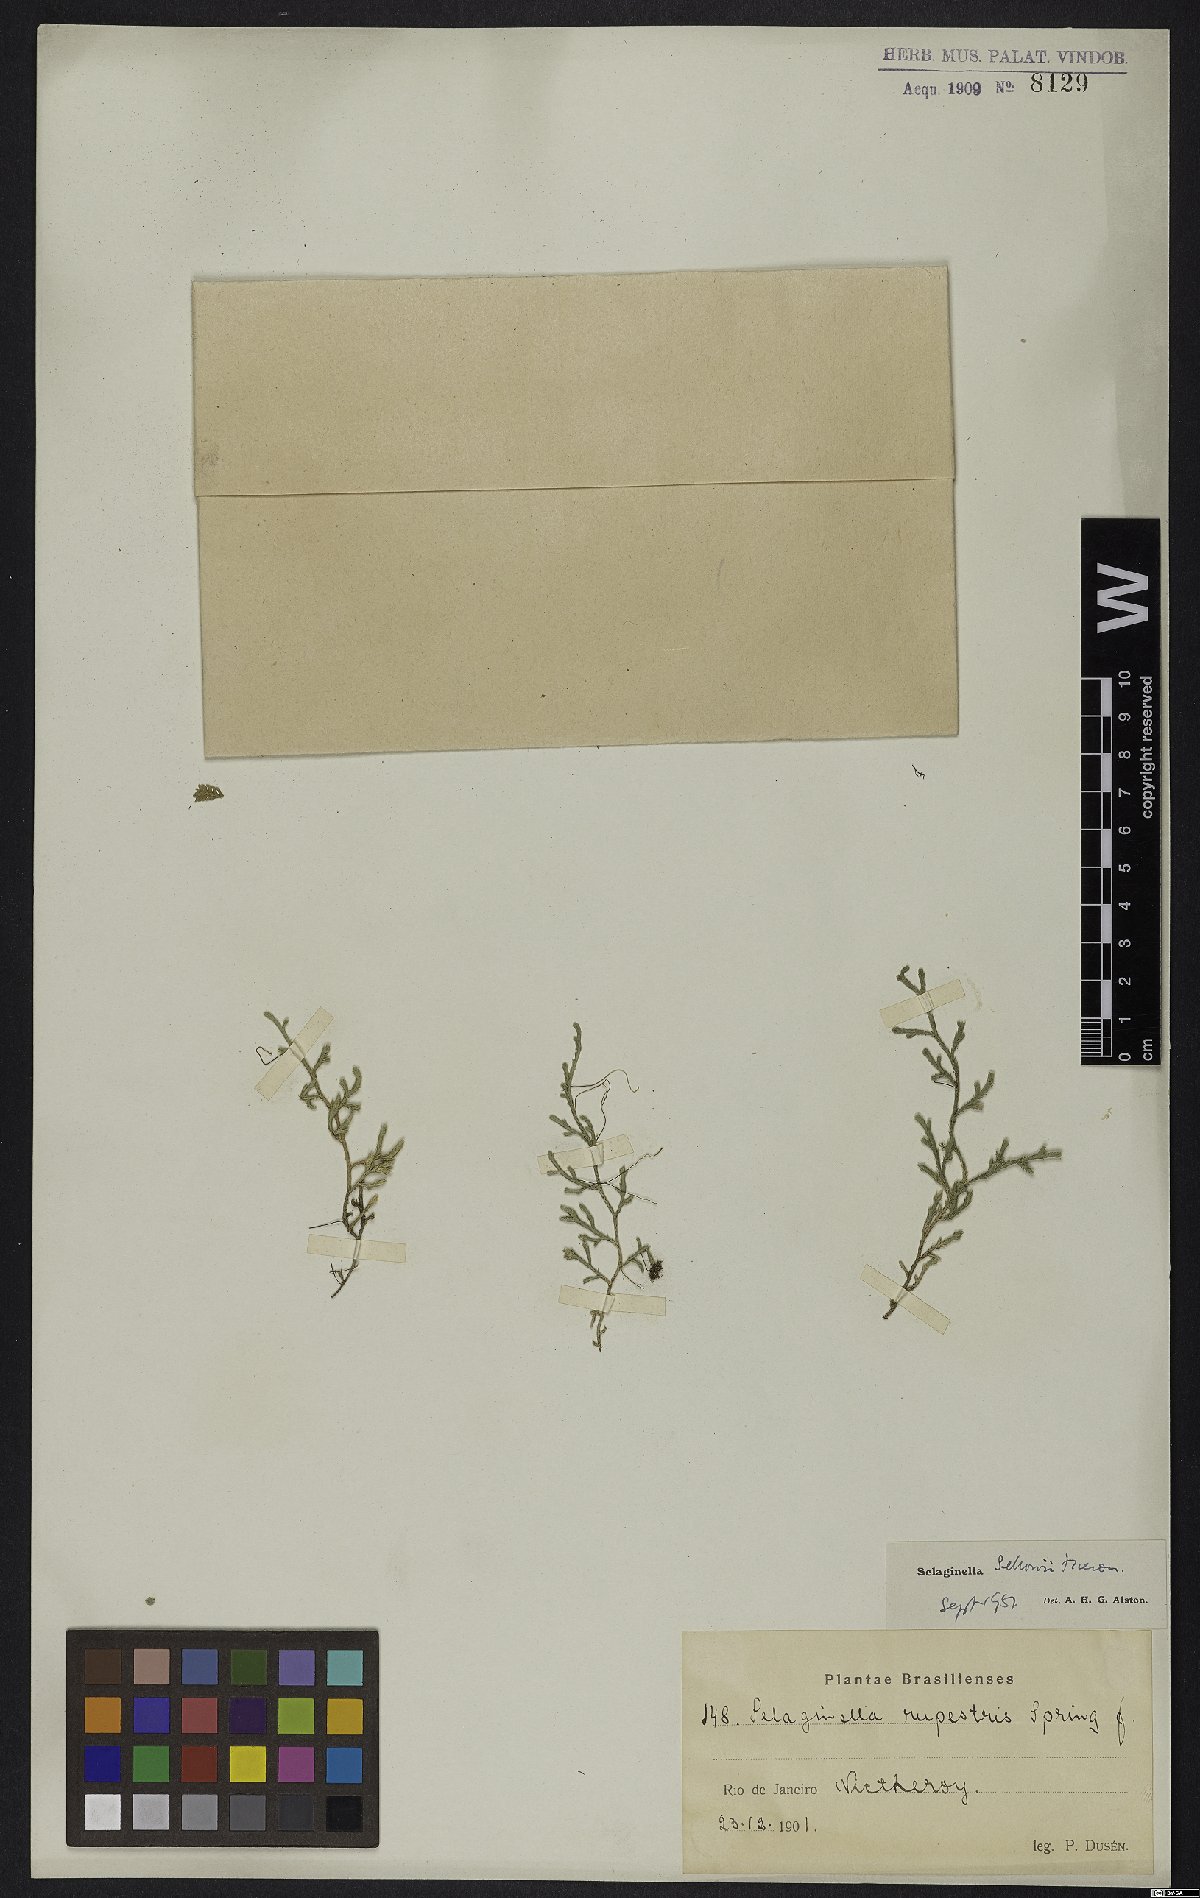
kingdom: Plantae
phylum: Tracheophyta
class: Lycopodiopsida
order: Selaginellales
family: Selaginellaceae
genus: Selaginella
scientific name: Selaginella sellowii
